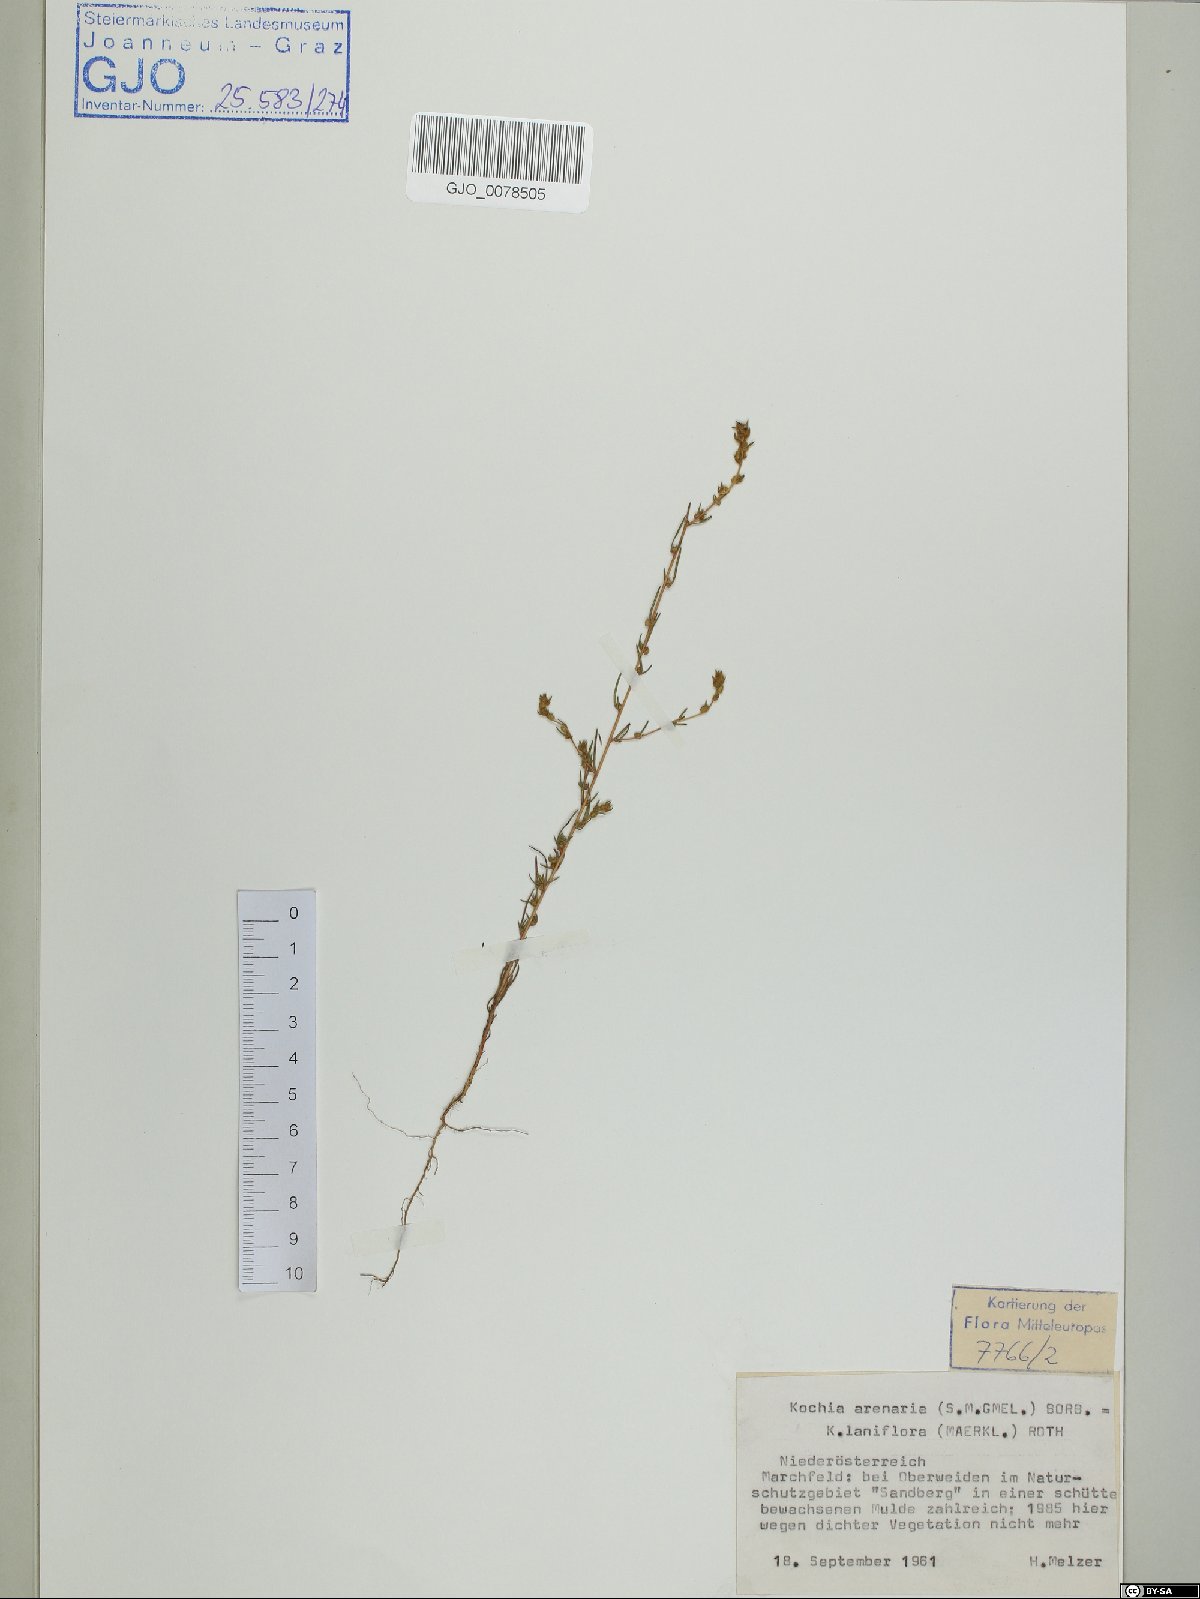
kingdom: Plantae
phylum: Tracheophyta
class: Magnoliopsida
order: Caryophyllales
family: Amaranthaceae
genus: Bassia
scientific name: Bassia laniflora
